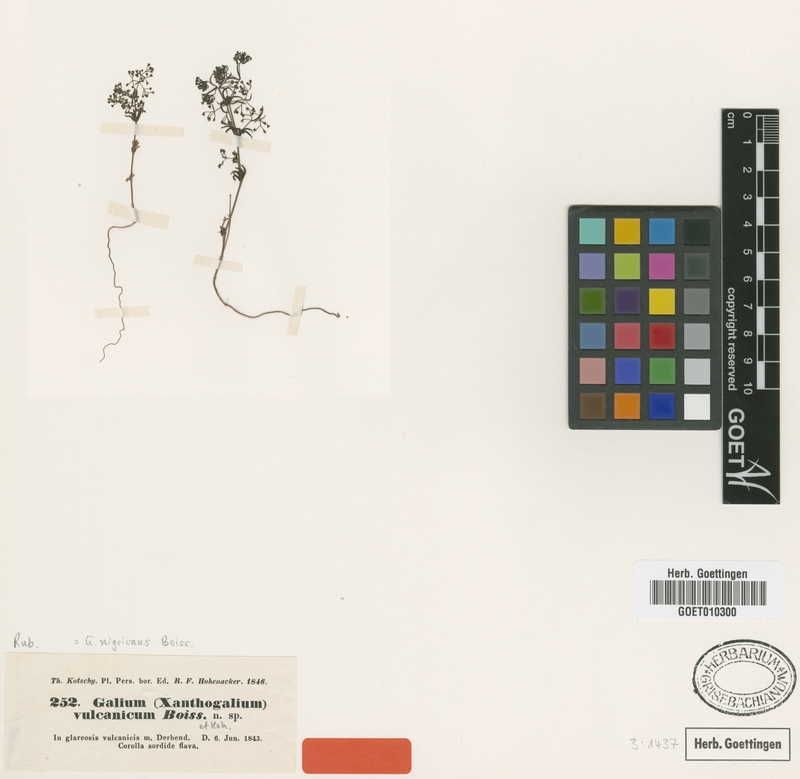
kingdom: Plantae
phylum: Tracheophyta
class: Magnoliopsida
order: Gentianales
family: Rubiaceae
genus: Galium
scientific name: Galium nigricans
